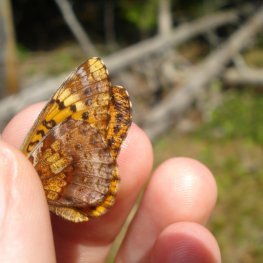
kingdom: Animalia
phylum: Arthropoda
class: Insecta
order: Lepidoptera
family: Nymphalidae
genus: Clossiana
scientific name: Clossiana toddi
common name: Meadow Fritillary
